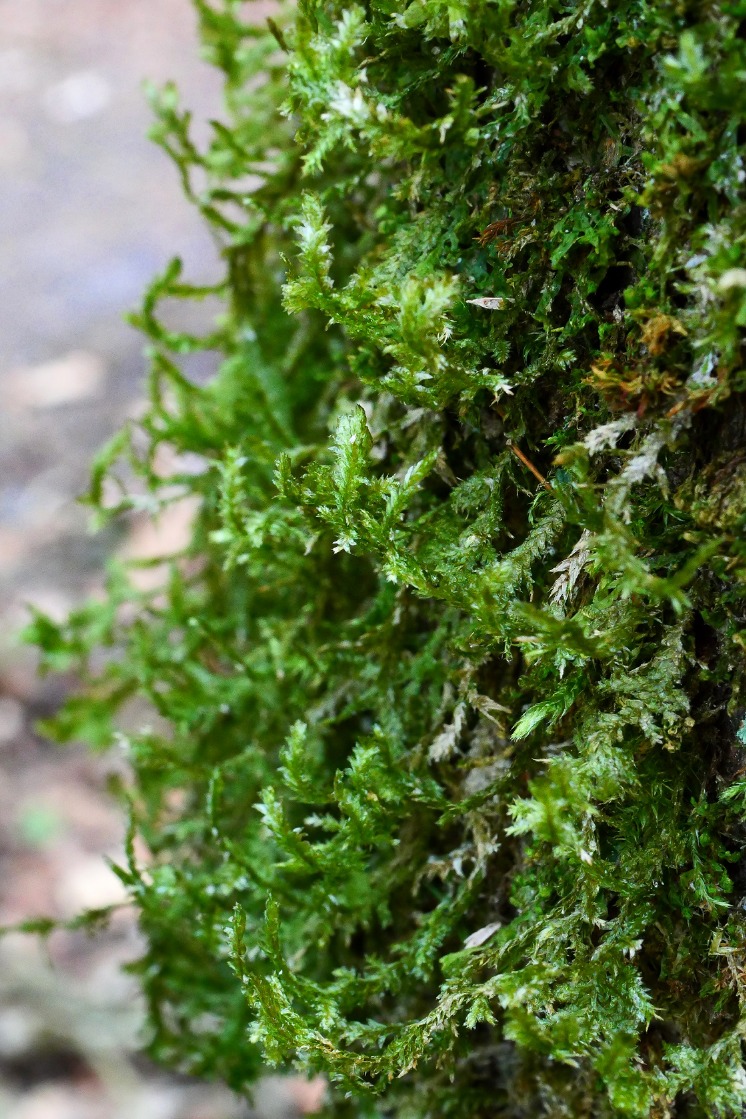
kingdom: Plantae
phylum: Bryophyta
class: Bryopsida
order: Hypnales
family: Neckeraceae
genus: Neckera
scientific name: Neckera pumila
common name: Lav fladmos
